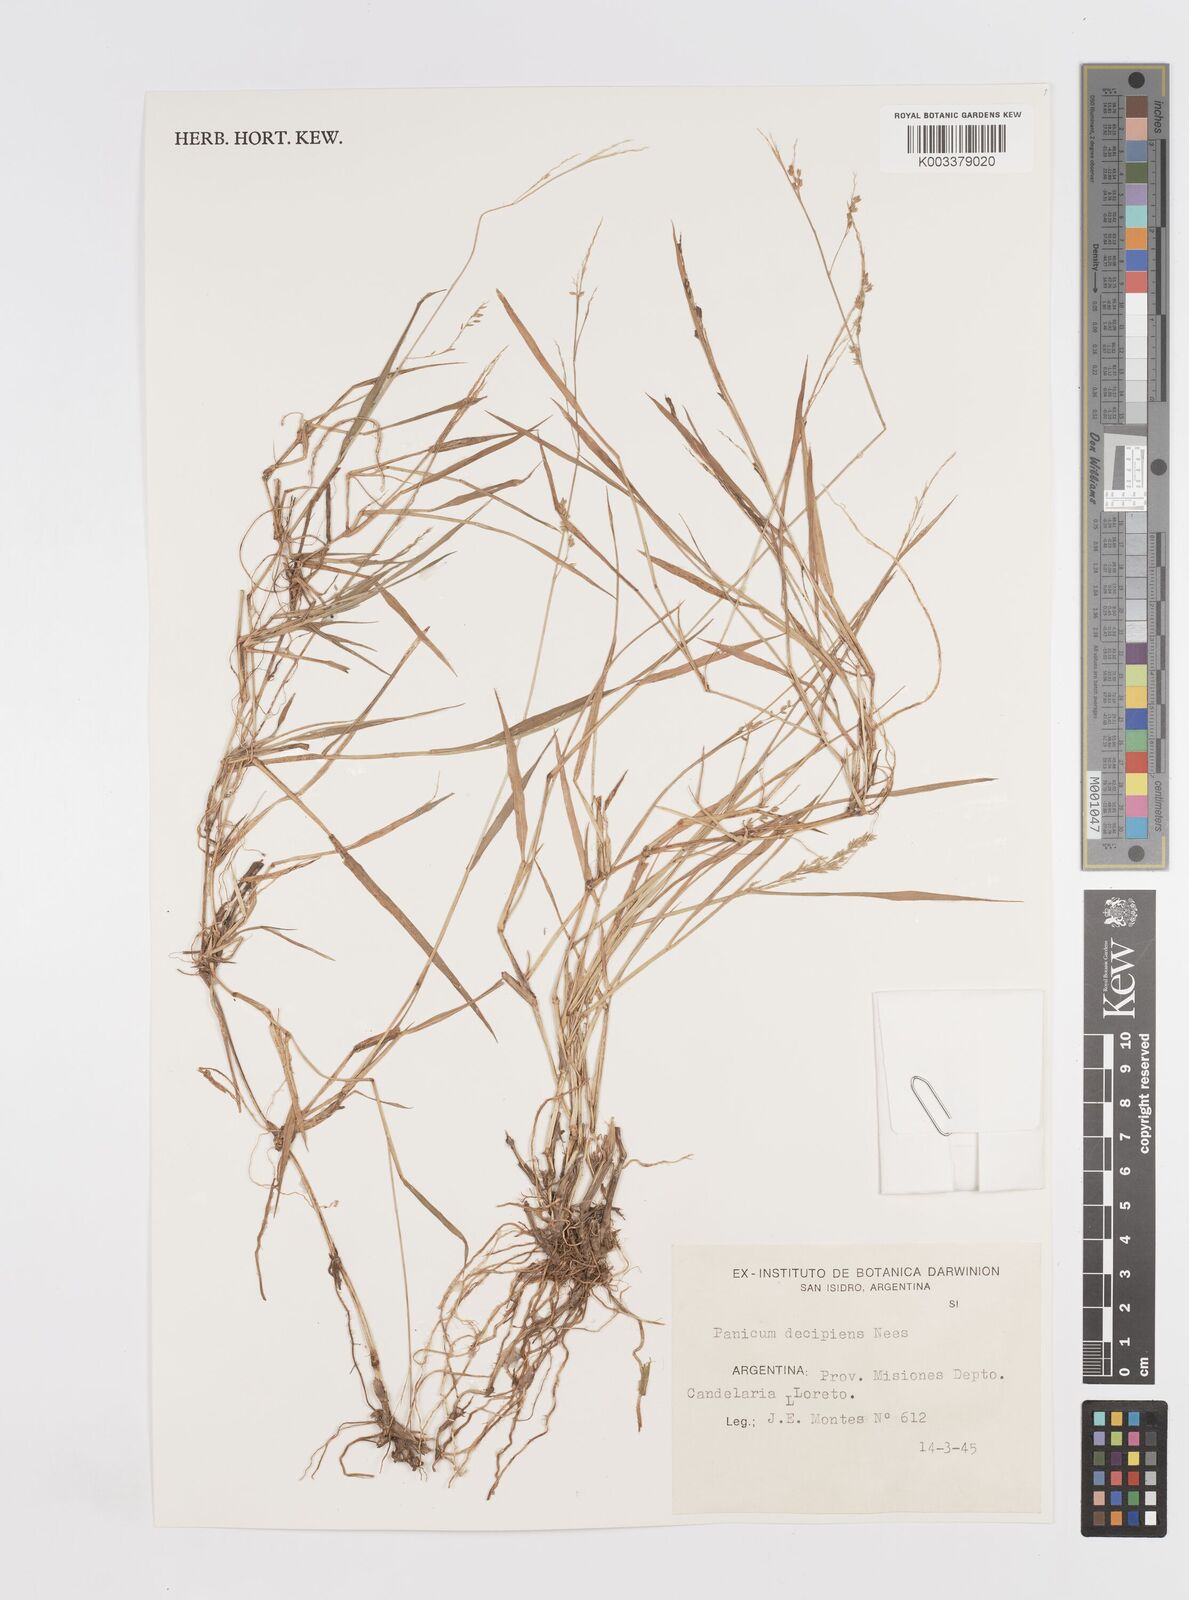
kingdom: Plantae
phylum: Tracheophyta
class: Liliopsida
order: Poales
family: Poaceae
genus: Steinchisma
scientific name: Steinchisma decipiens
